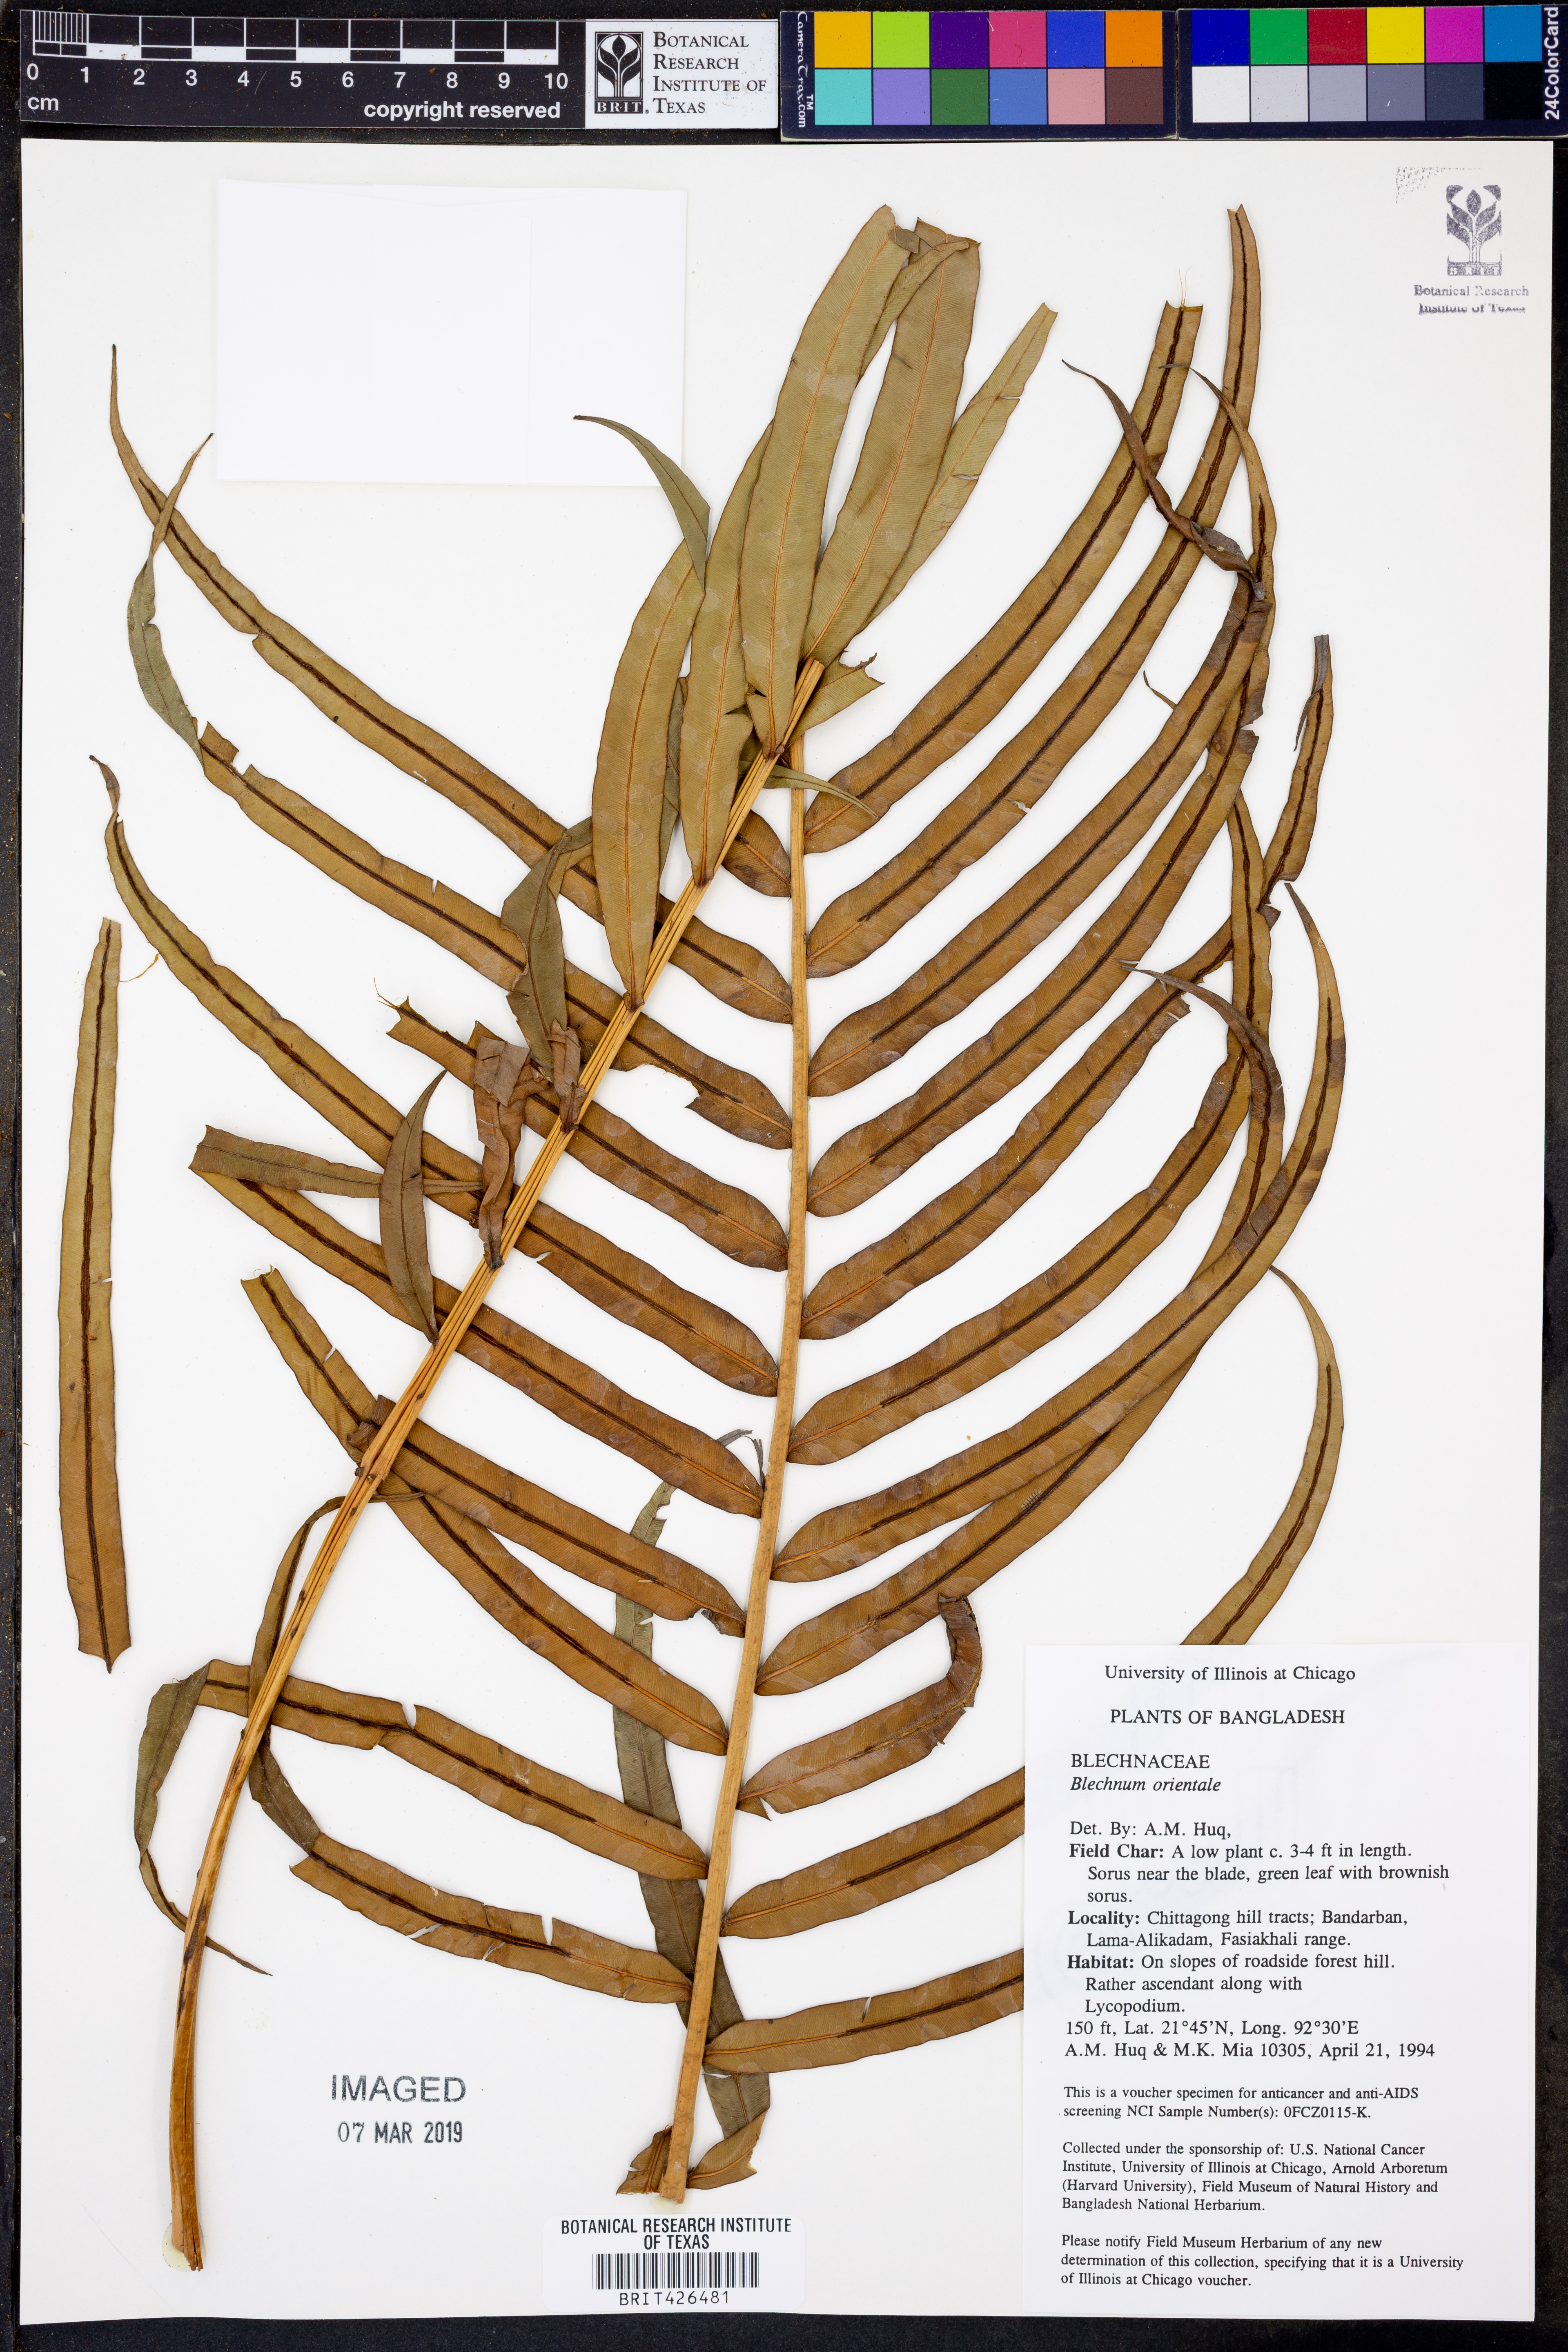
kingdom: Plantae
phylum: Tracheophyta
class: Polypodiopsida
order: Polypodiales
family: Blechnaceae
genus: Blechnopsis
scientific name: Blechnopsis orientalis
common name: Oriental blechnum
